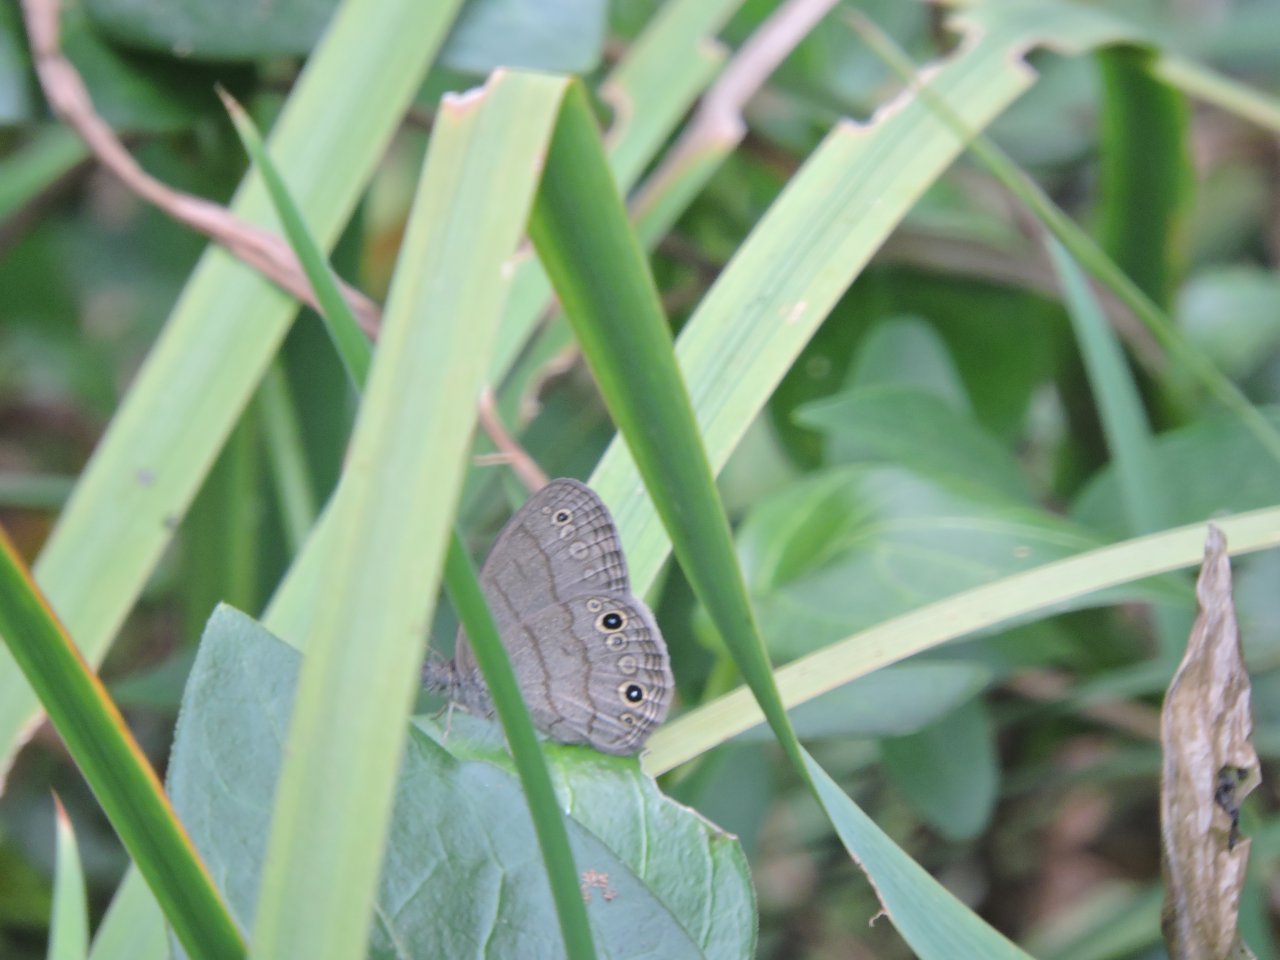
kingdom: Animalia
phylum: Arthropoda
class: Insecta
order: Lepidoptera
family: Nymphalidae
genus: Hermeuptychia
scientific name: Hermeuptychia hermes
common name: Carolina Satyr
